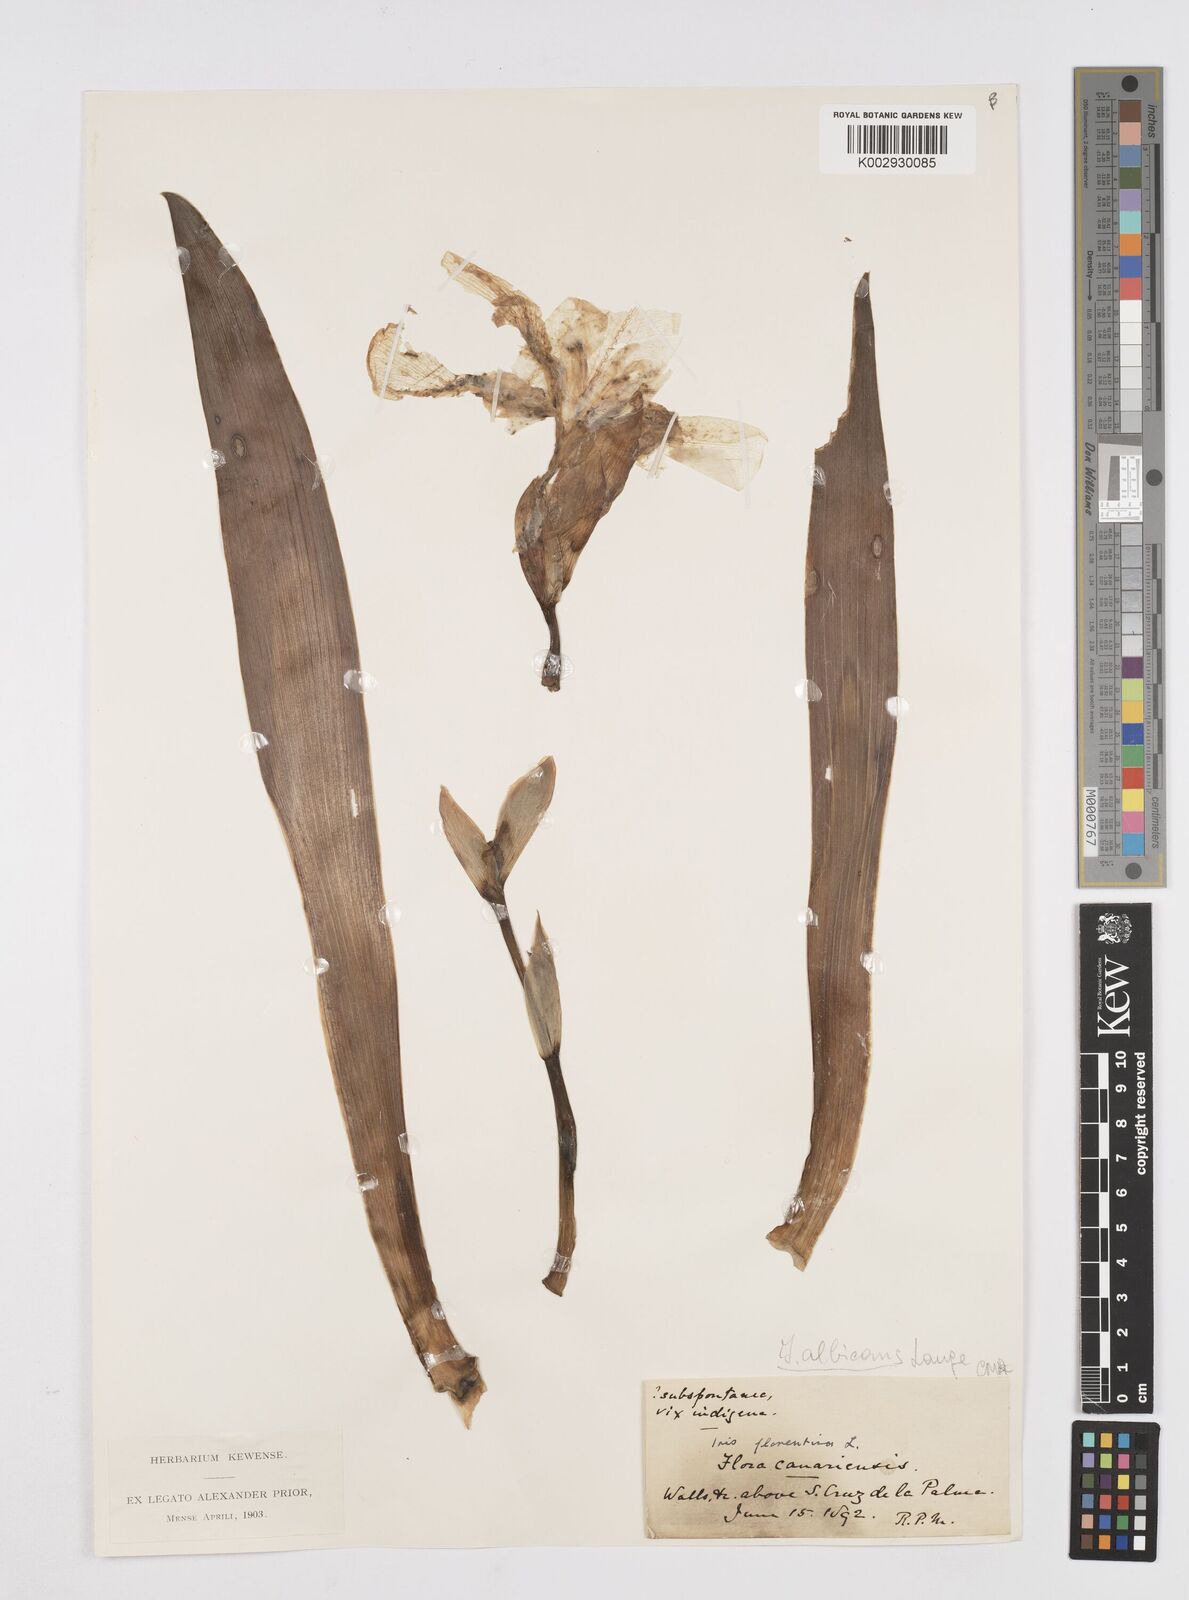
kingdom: Plantae
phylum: Tracheophyta
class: Liliopsida
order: Asparagales
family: Iridaceae
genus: Iris
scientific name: Iris florentina
